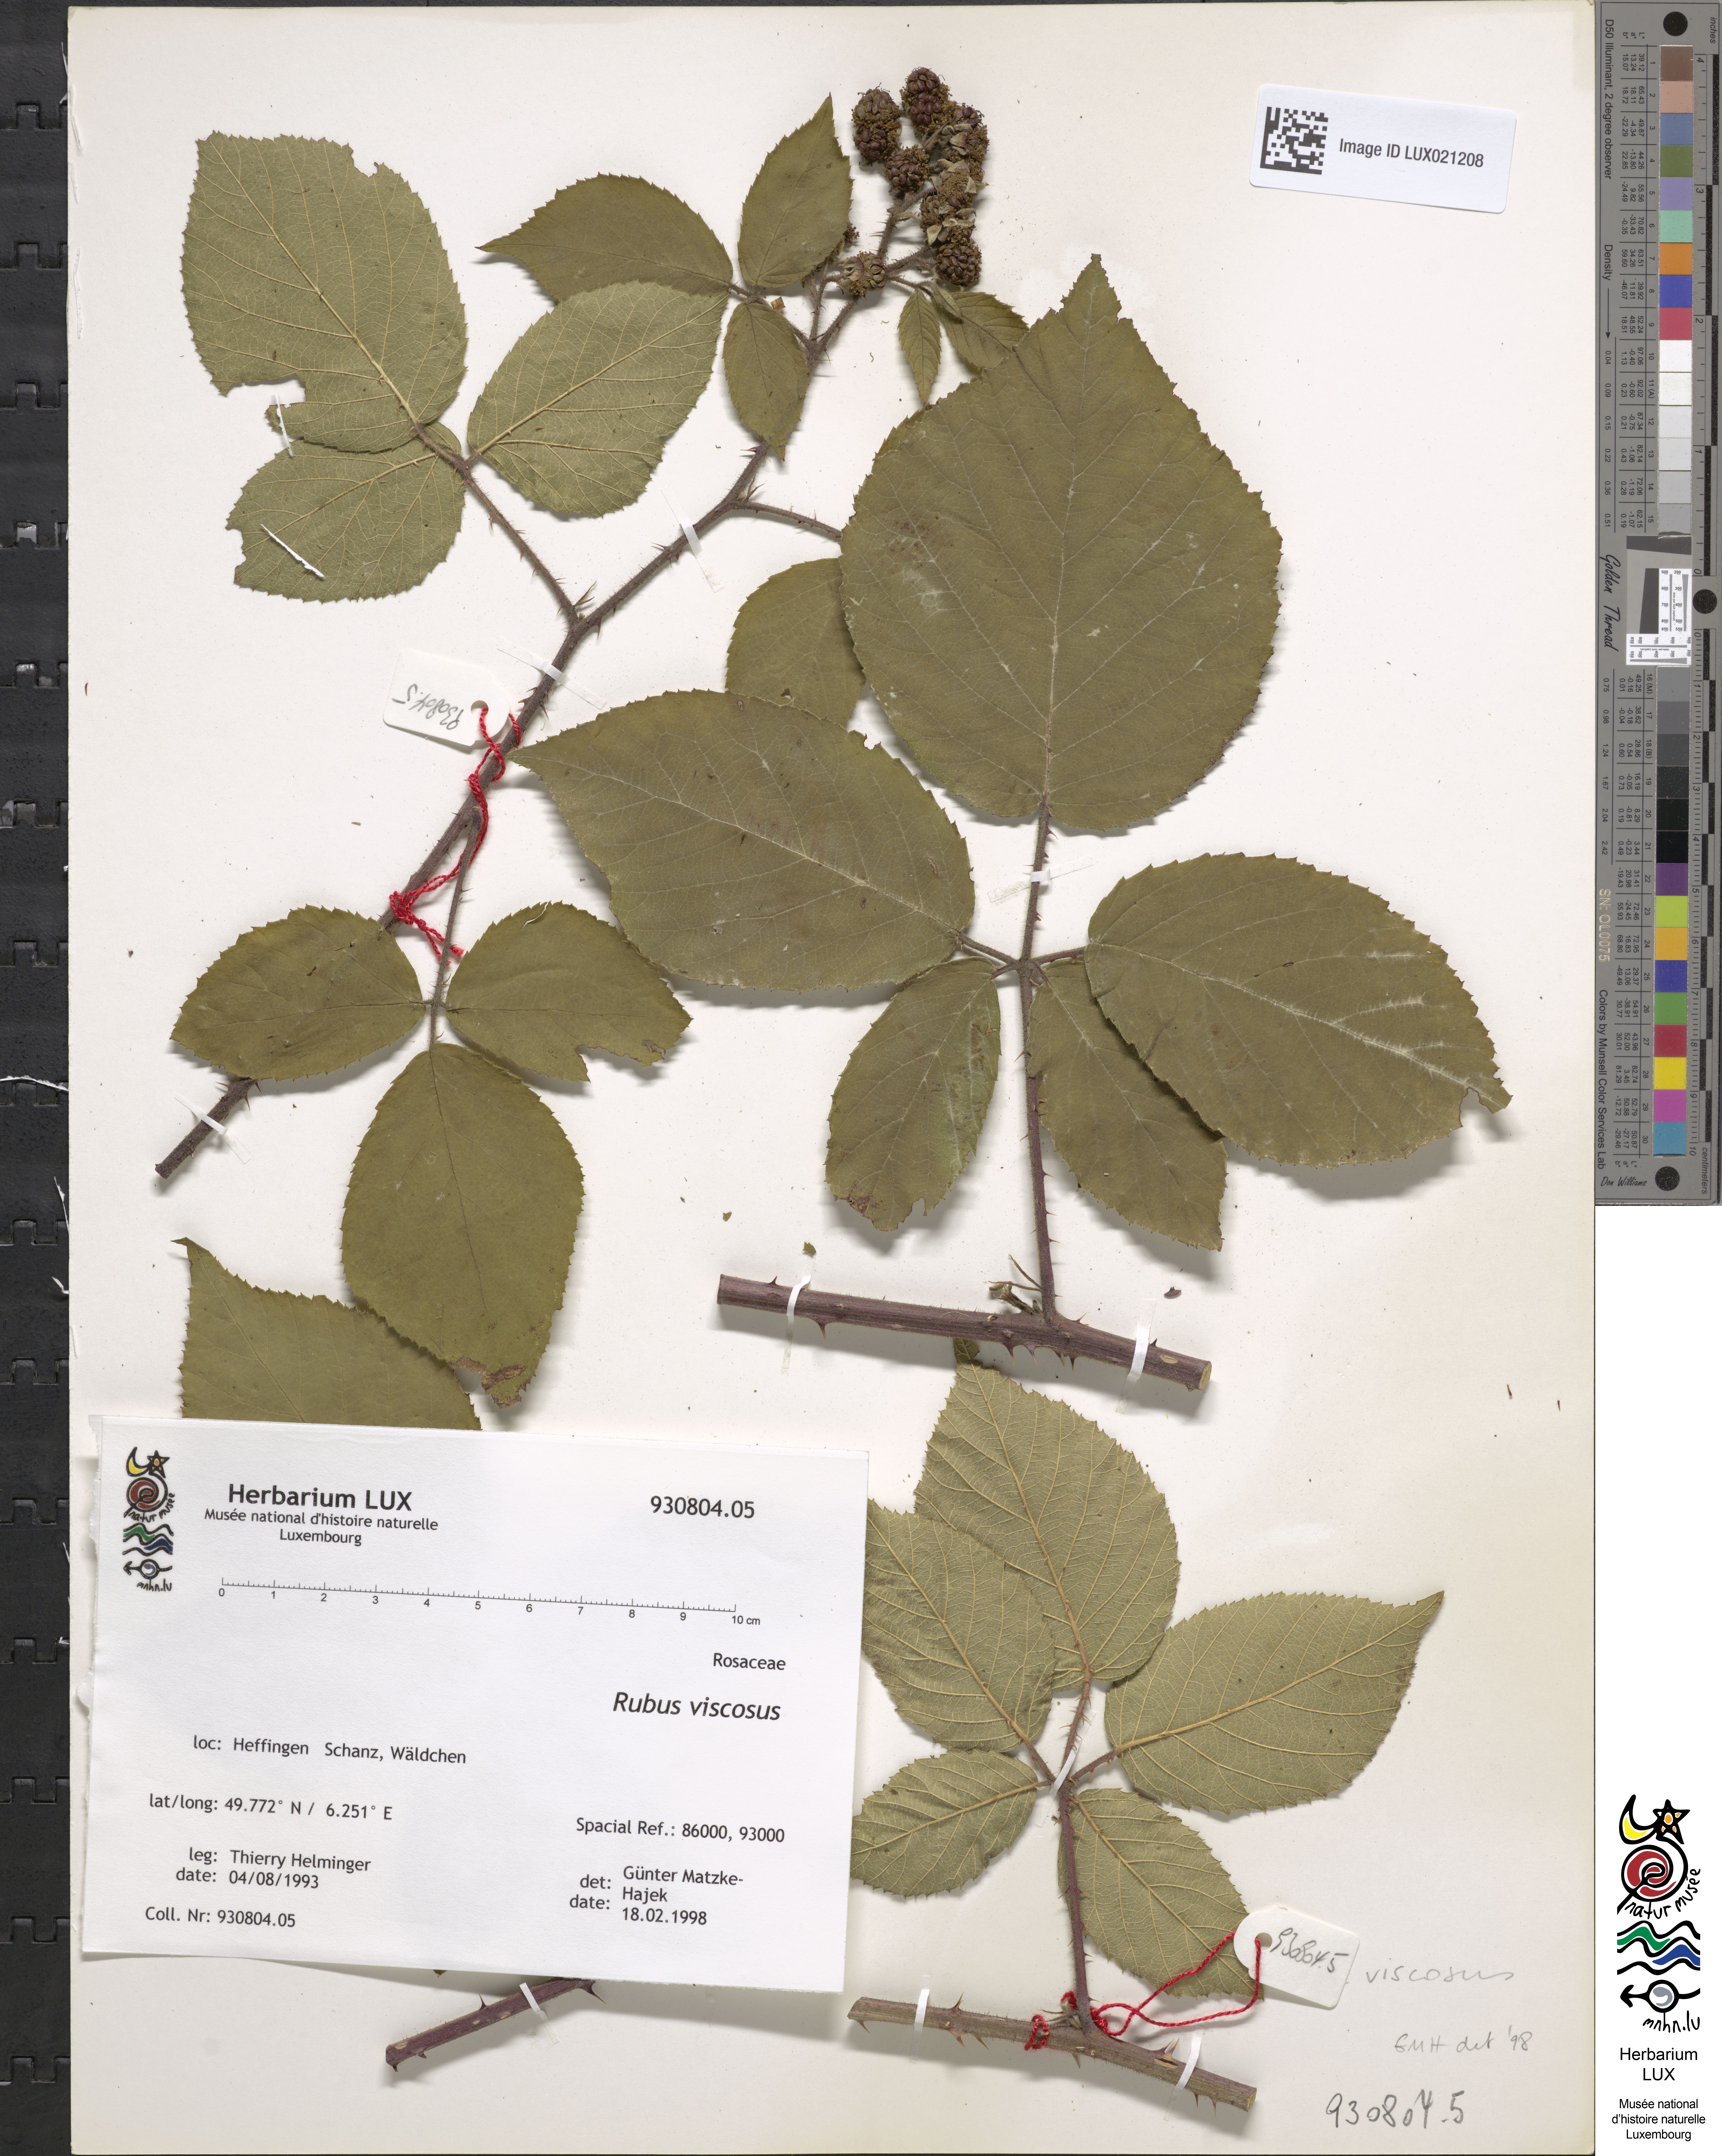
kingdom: Plantae
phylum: Tracheophyta
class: Magnoliopsida
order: Rosales
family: Rosaceae
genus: Rubus
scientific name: Rubus viscosus
